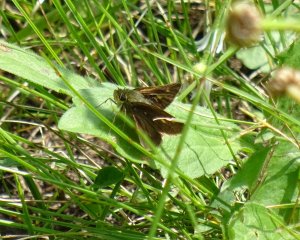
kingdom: Animalia
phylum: Arthropoda
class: Insecta
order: Lepidoptera
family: Hesperiidae
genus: Polites
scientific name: Polites themistocles
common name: Tawny-edged Skipper
